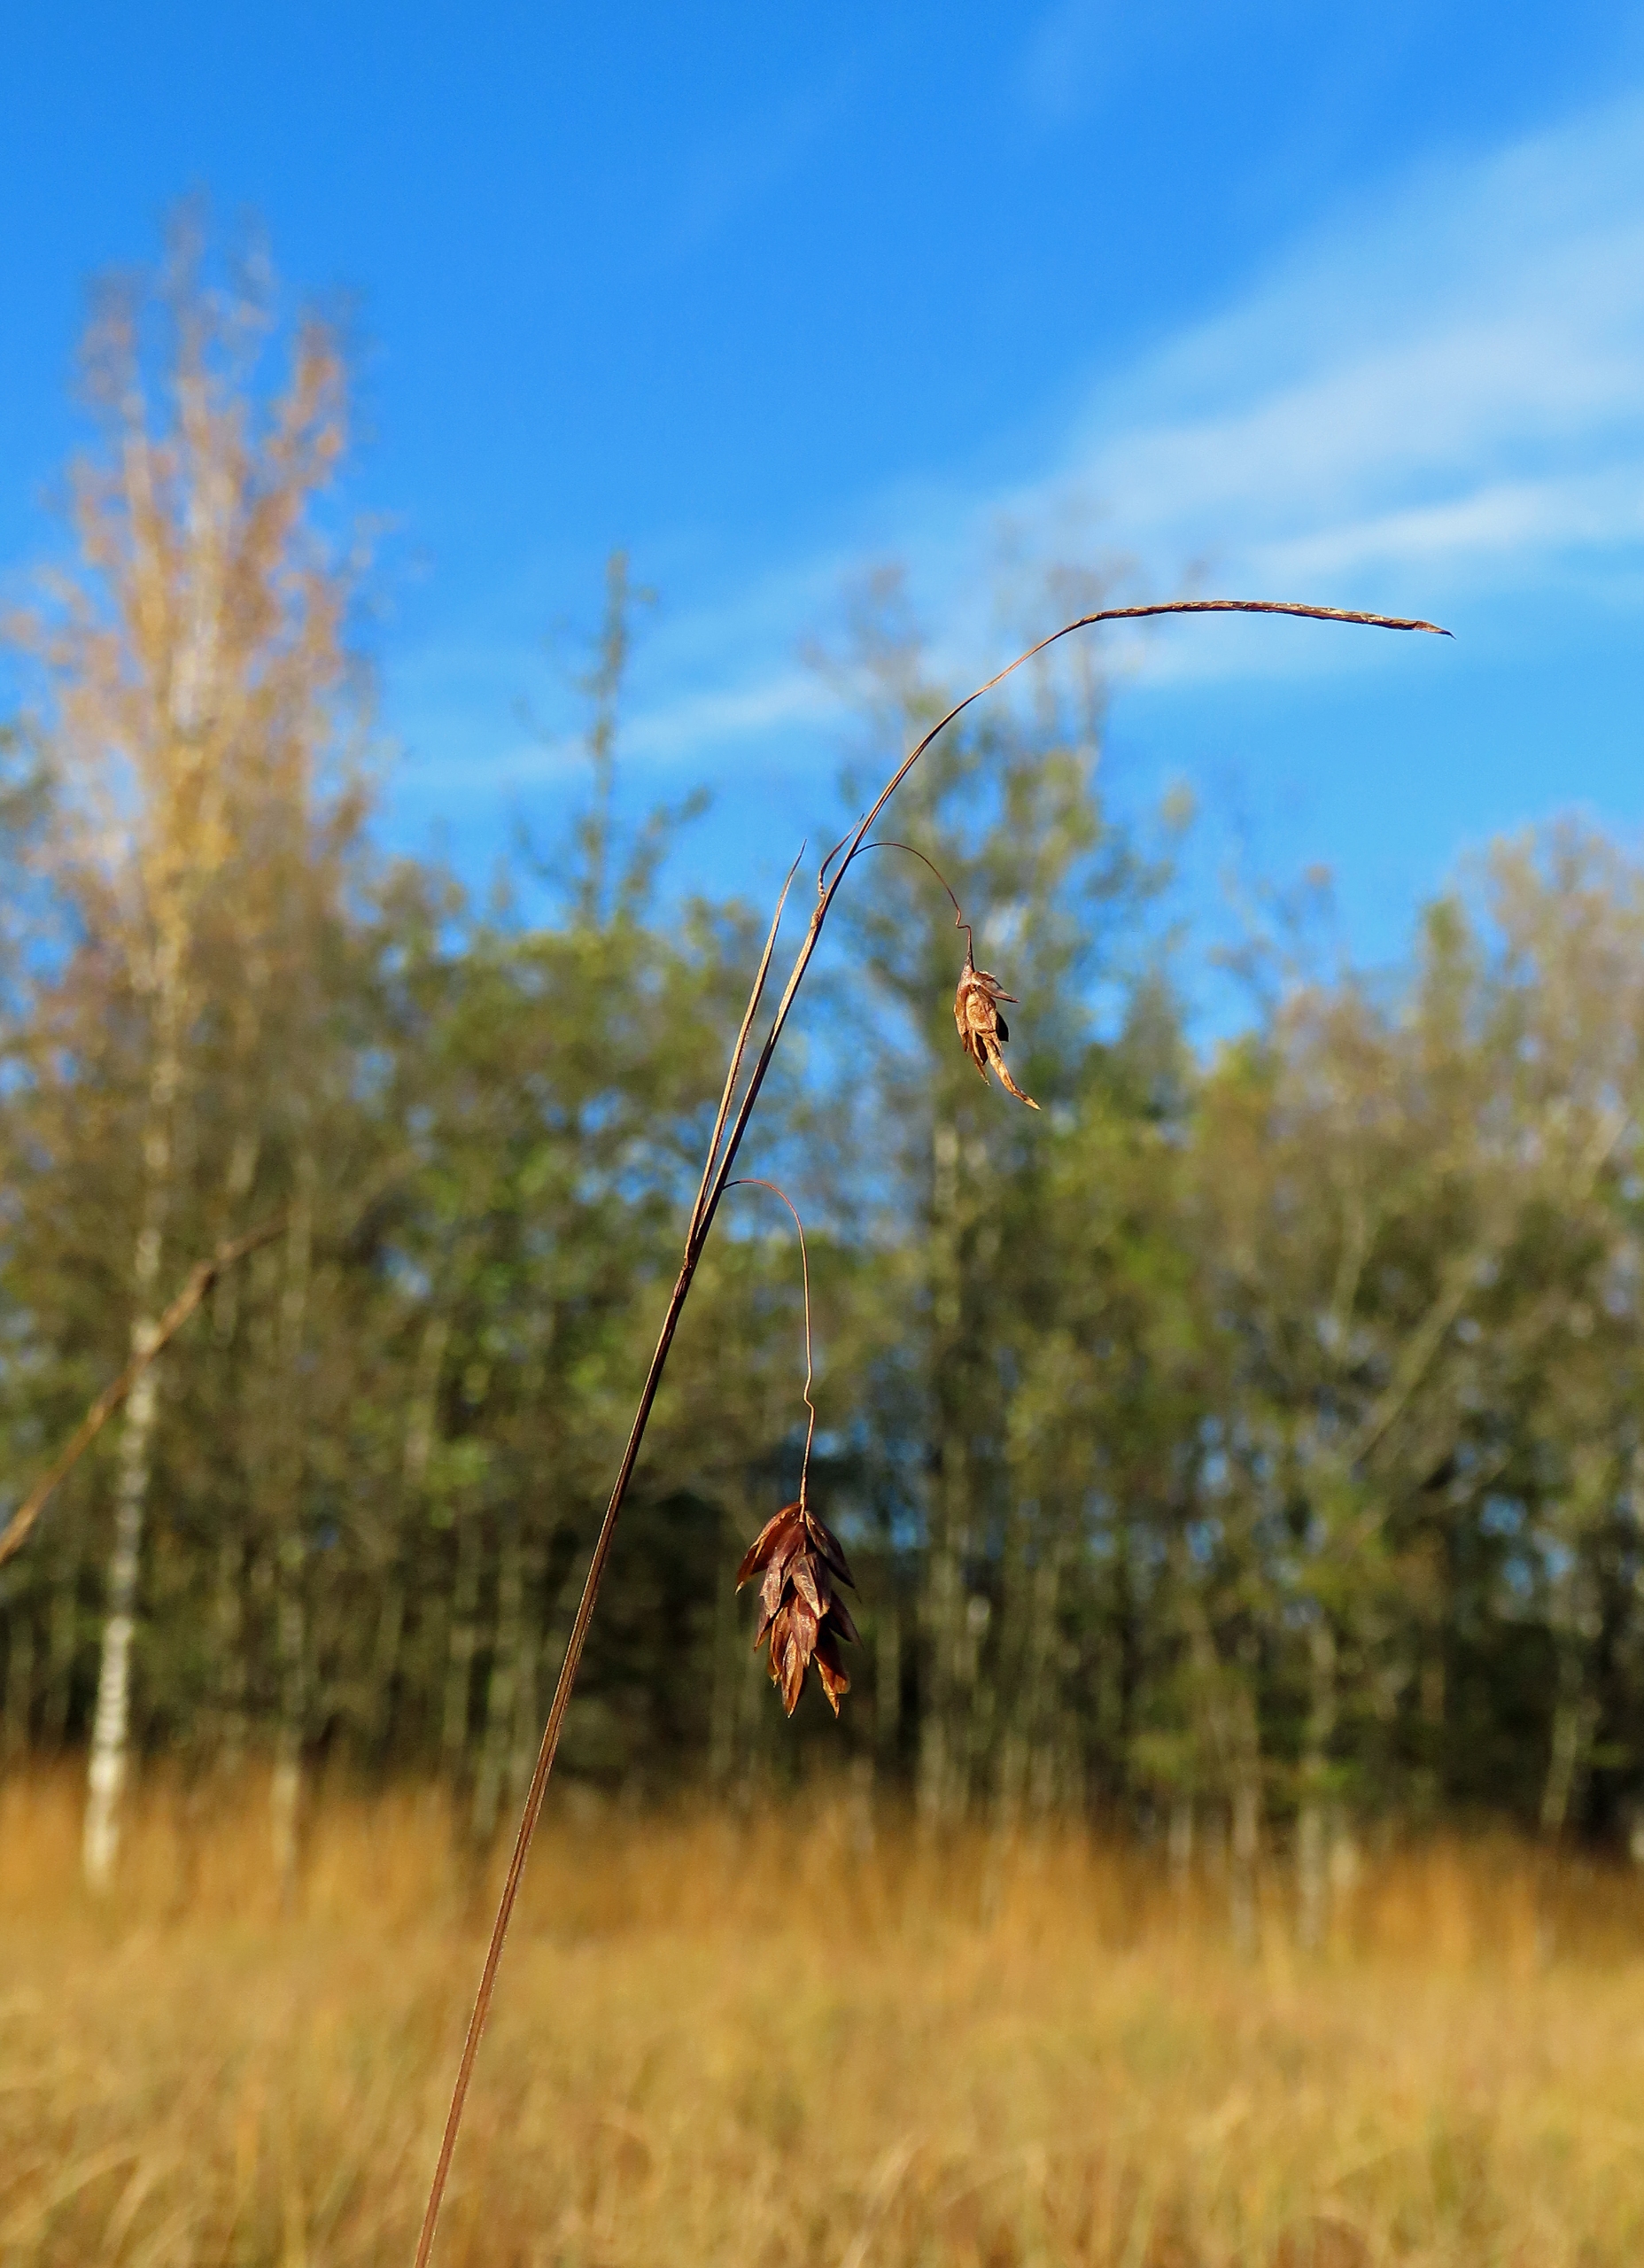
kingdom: Plantae
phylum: Tracheophyta
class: Liliopsida
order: Poales
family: Cyperaceae
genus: Carex
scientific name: Carex limosa
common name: Dynd-star
